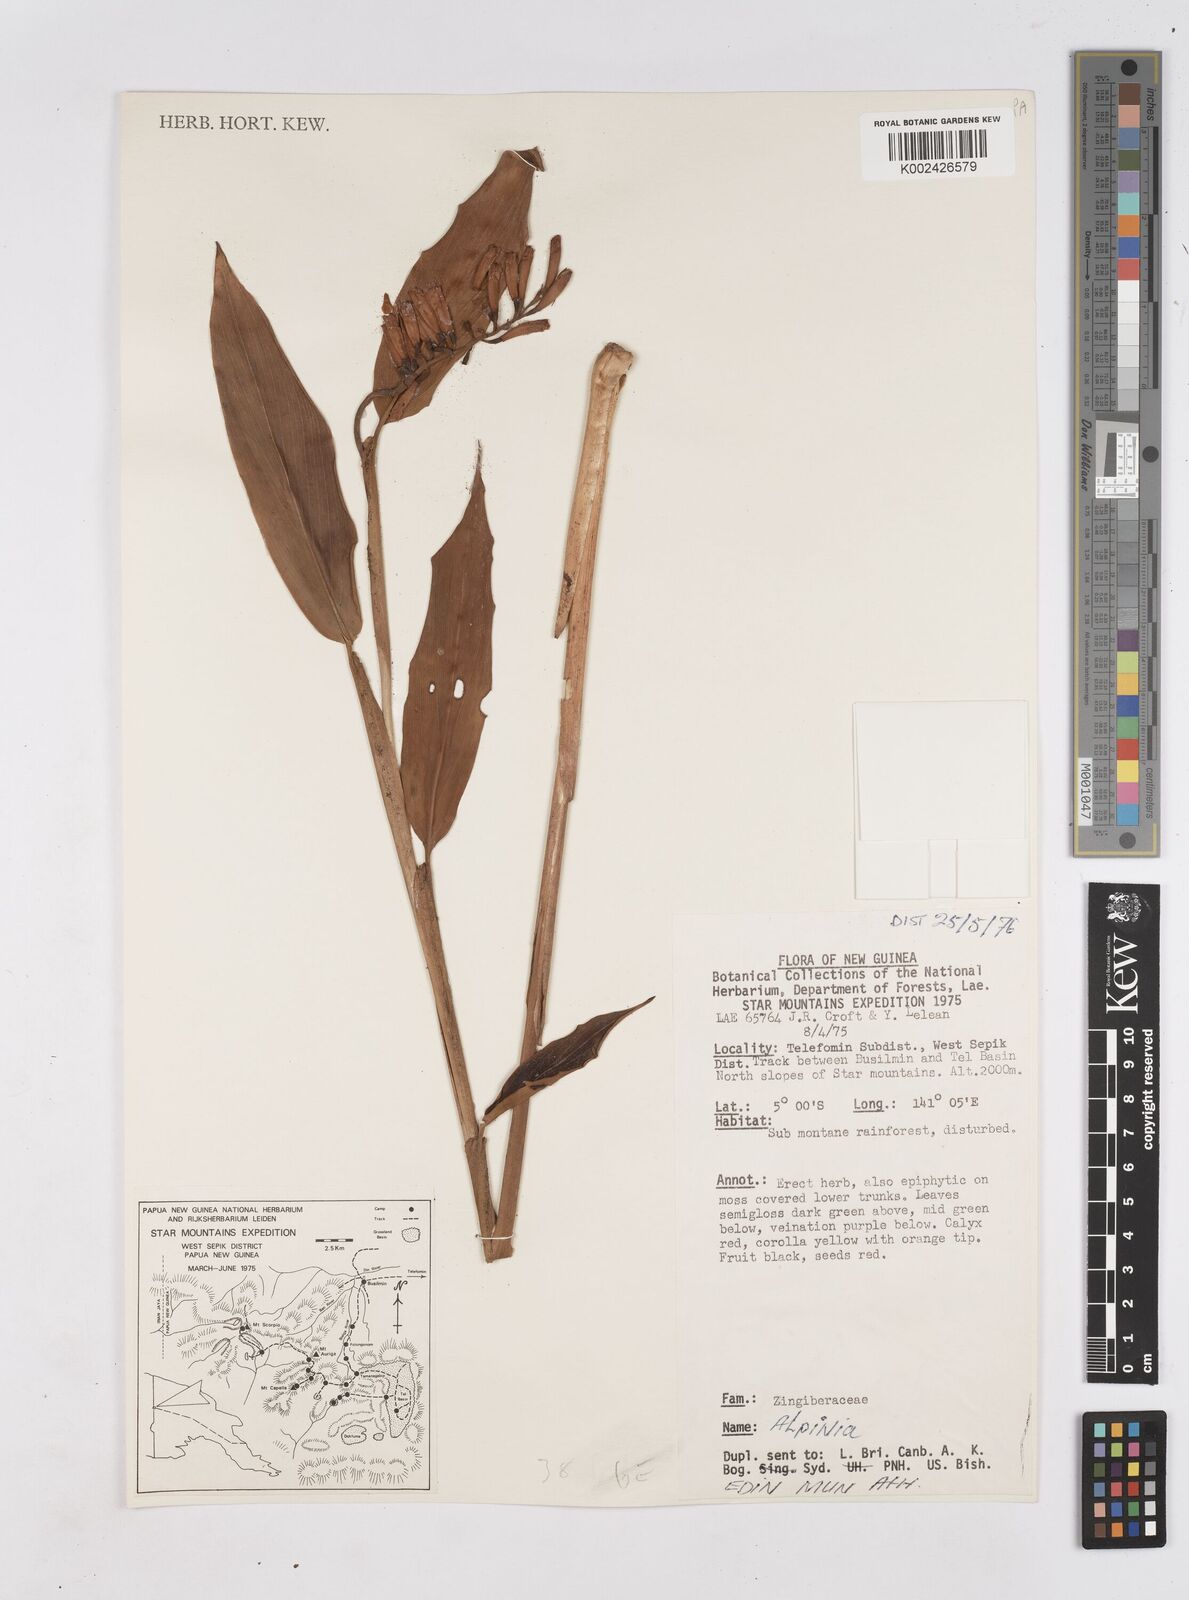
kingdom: Plantae
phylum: Tracheophyta
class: Liliopsida
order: Zingiberales
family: Zingiberaceae
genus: Riedelia
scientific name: Riedelia
